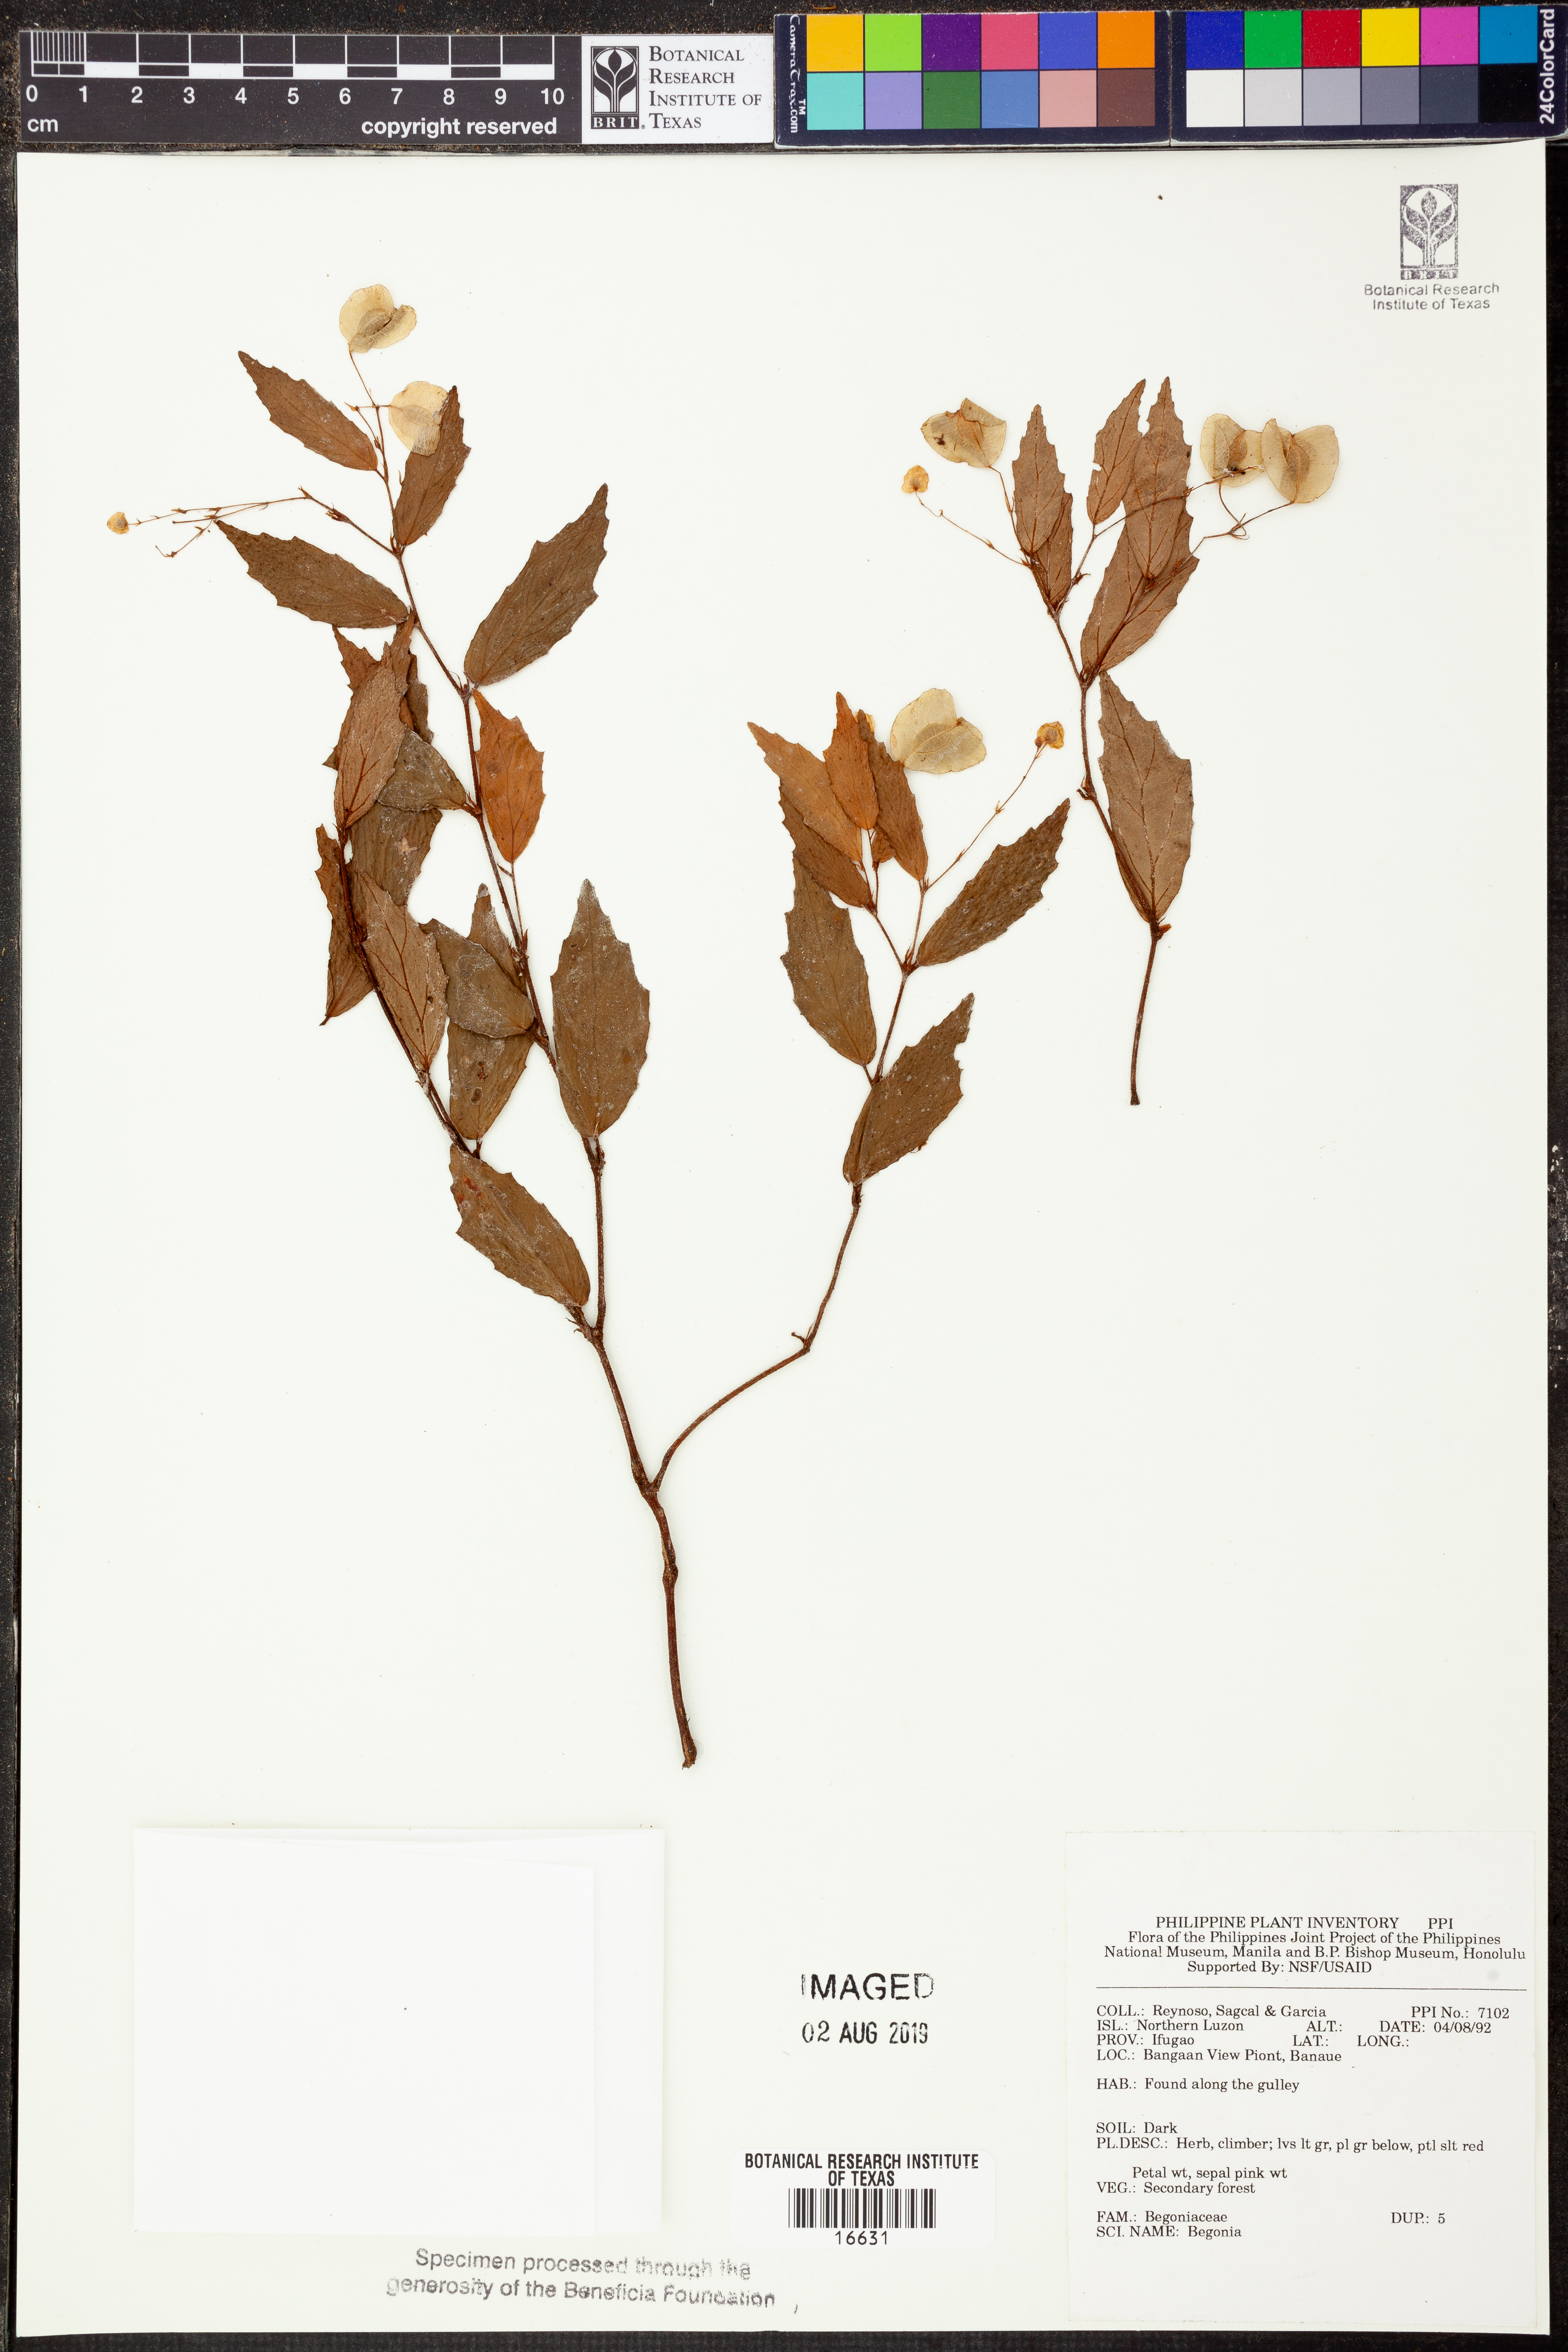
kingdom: Plantae
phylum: Tracheophyta
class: Magnoliopsida
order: Cucurbitales
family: Begoniaceae
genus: Begonia
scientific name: Begonia
